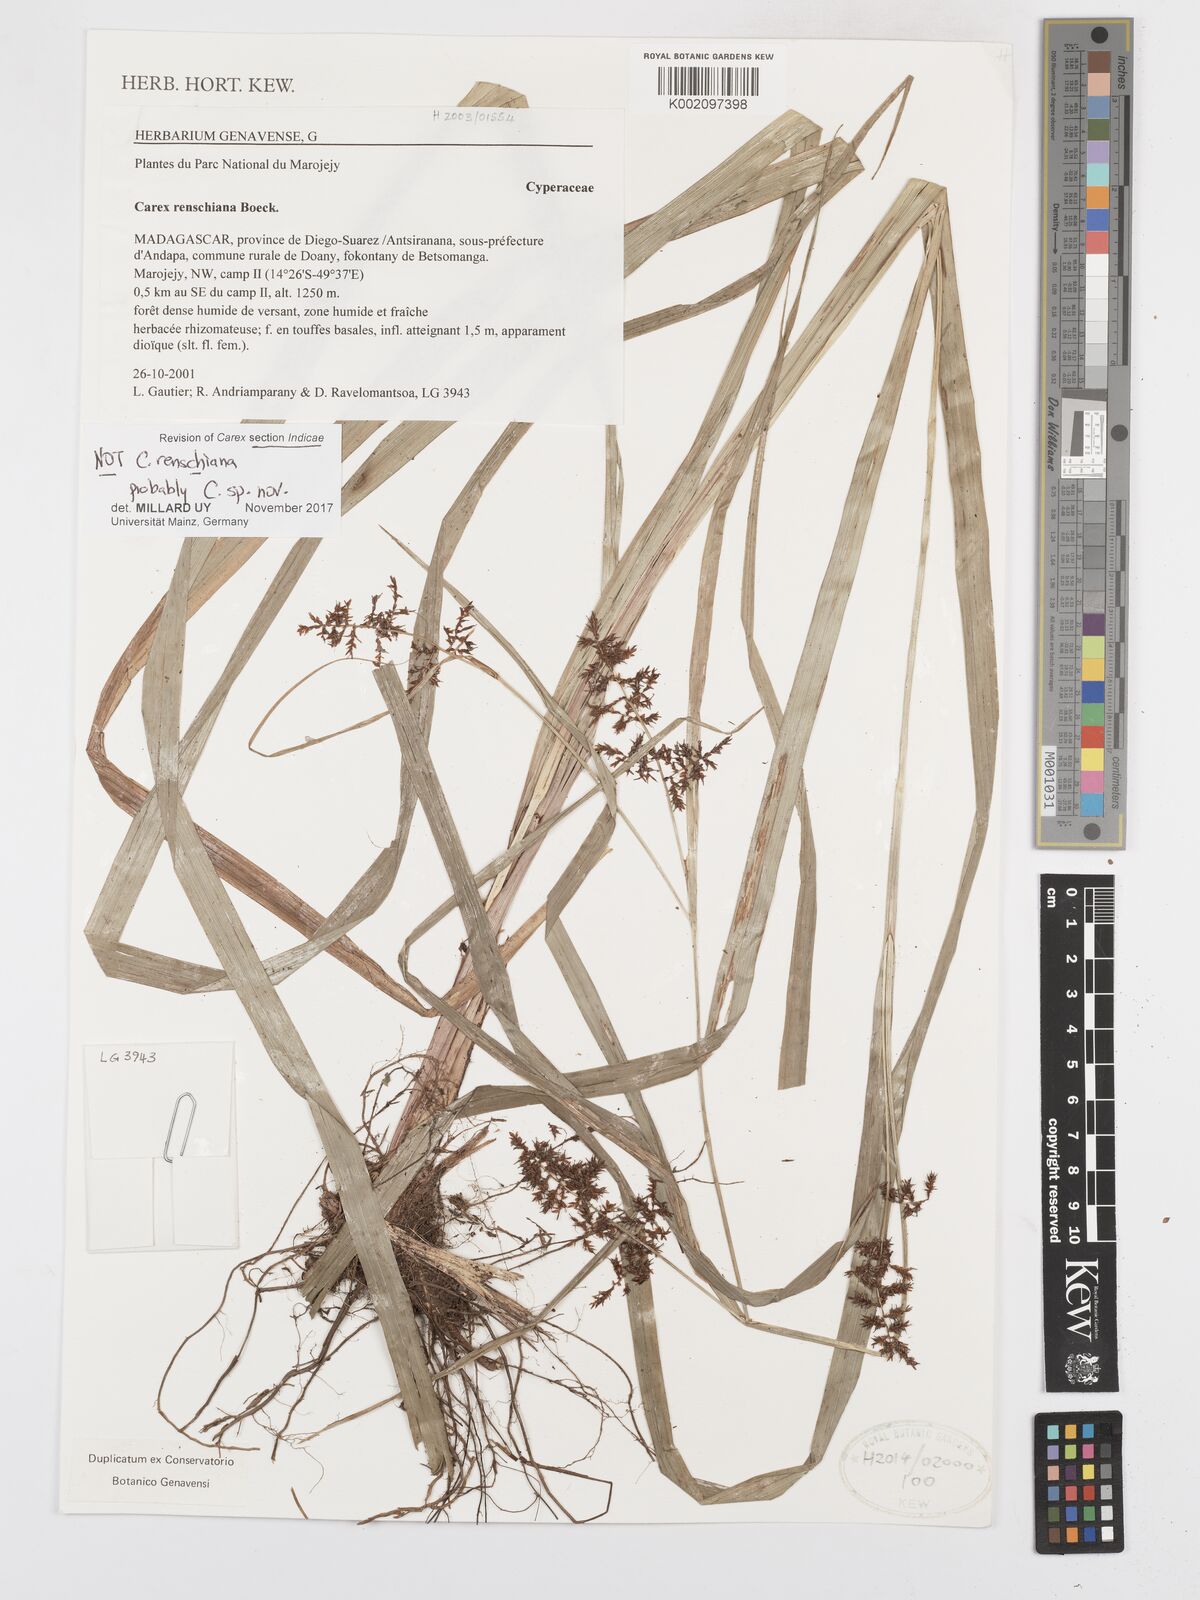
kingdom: Plantae
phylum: Tracheophyta
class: Liliopsida
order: Poales
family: Cyperaceae
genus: Carex
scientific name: Carex
